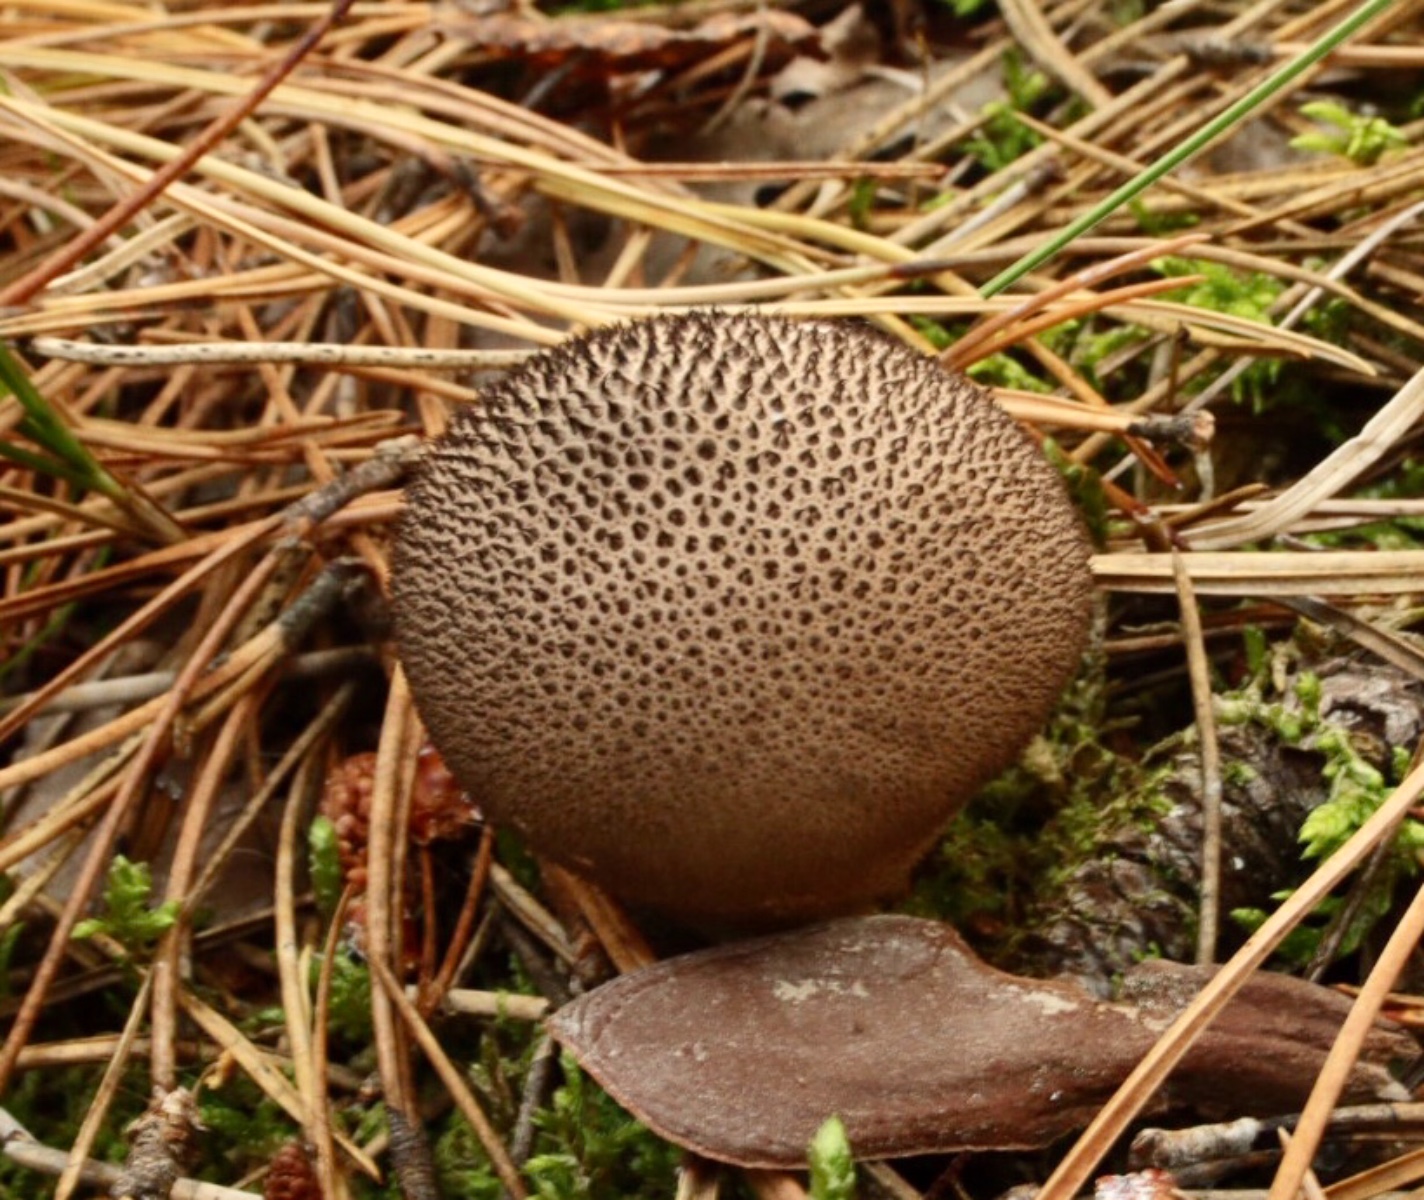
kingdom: Fungi
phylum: Basidiomycota
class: Agaricomycetes
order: Agaricales
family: Lycoperdaceae
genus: Lycoperdon
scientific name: Lycoperdon nigrescens
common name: sortagtig støvbold
